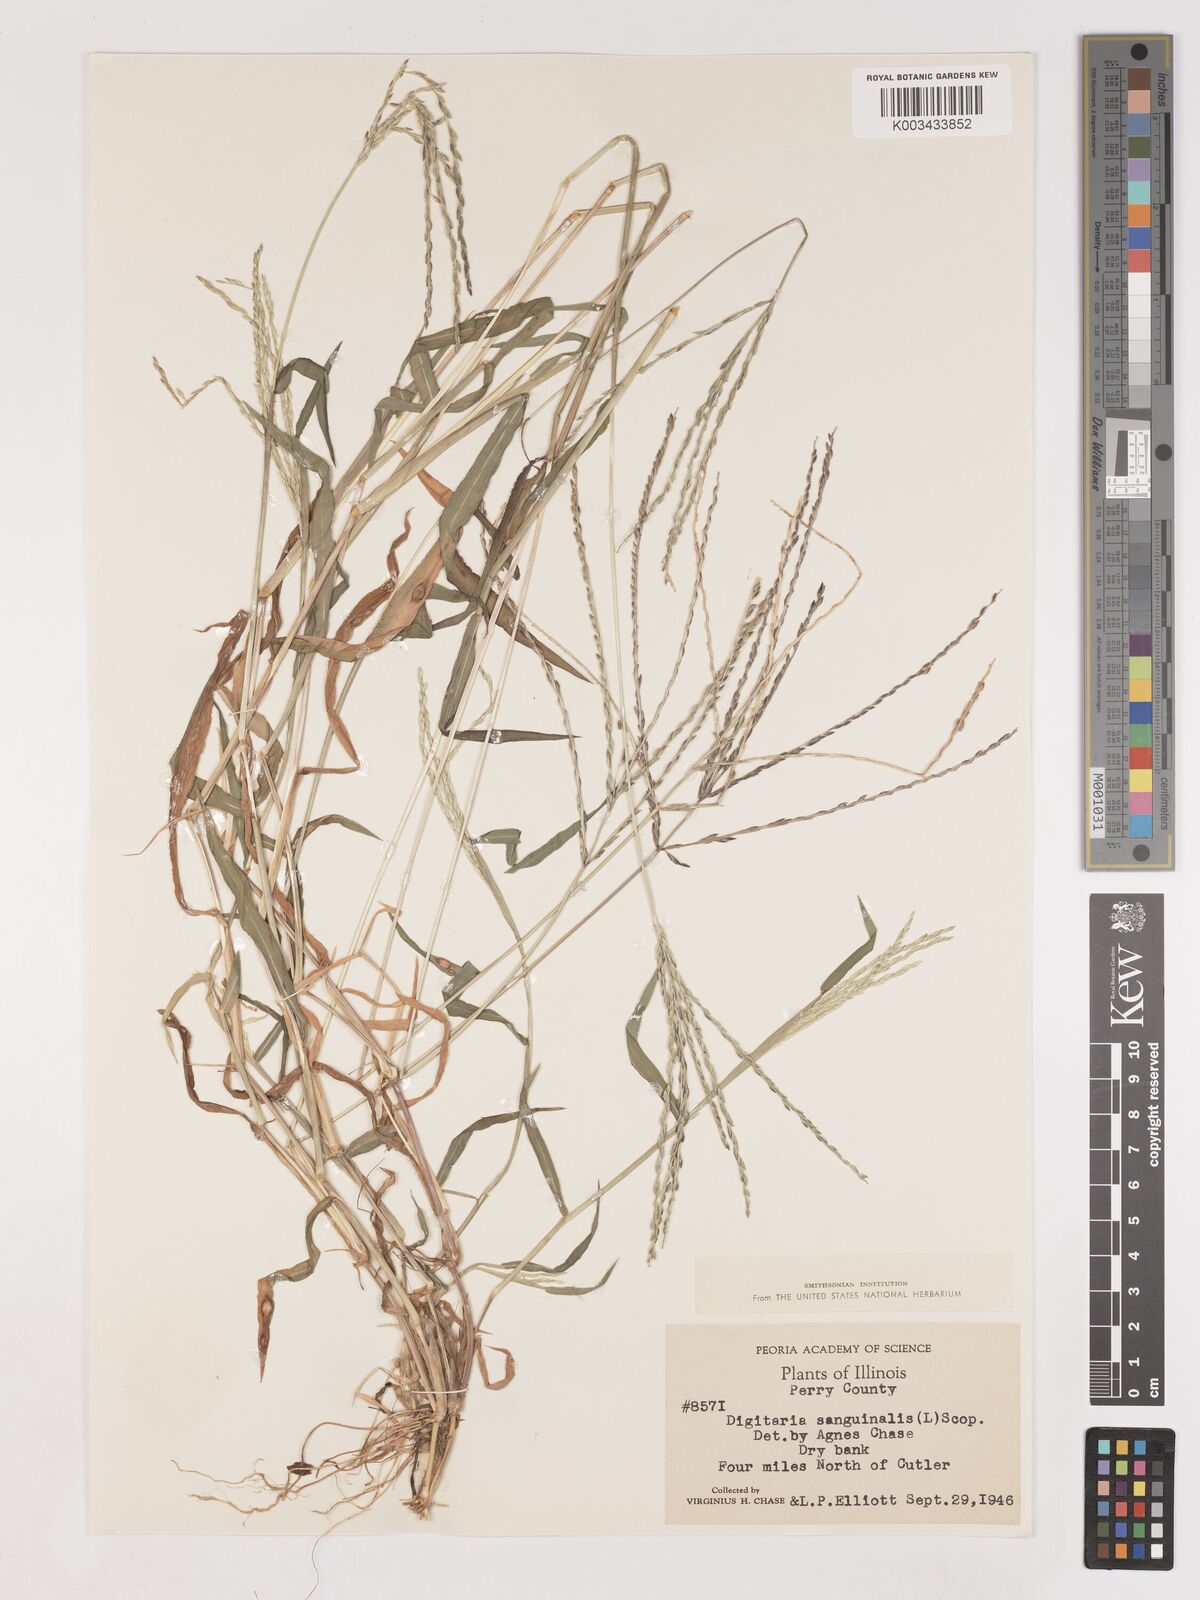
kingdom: Plantae
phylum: Tracheophyta
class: Liliopsida
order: Poales
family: Poaceae
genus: Digitaria
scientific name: Digitaria ciliaris
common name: Tropical finger-grass
